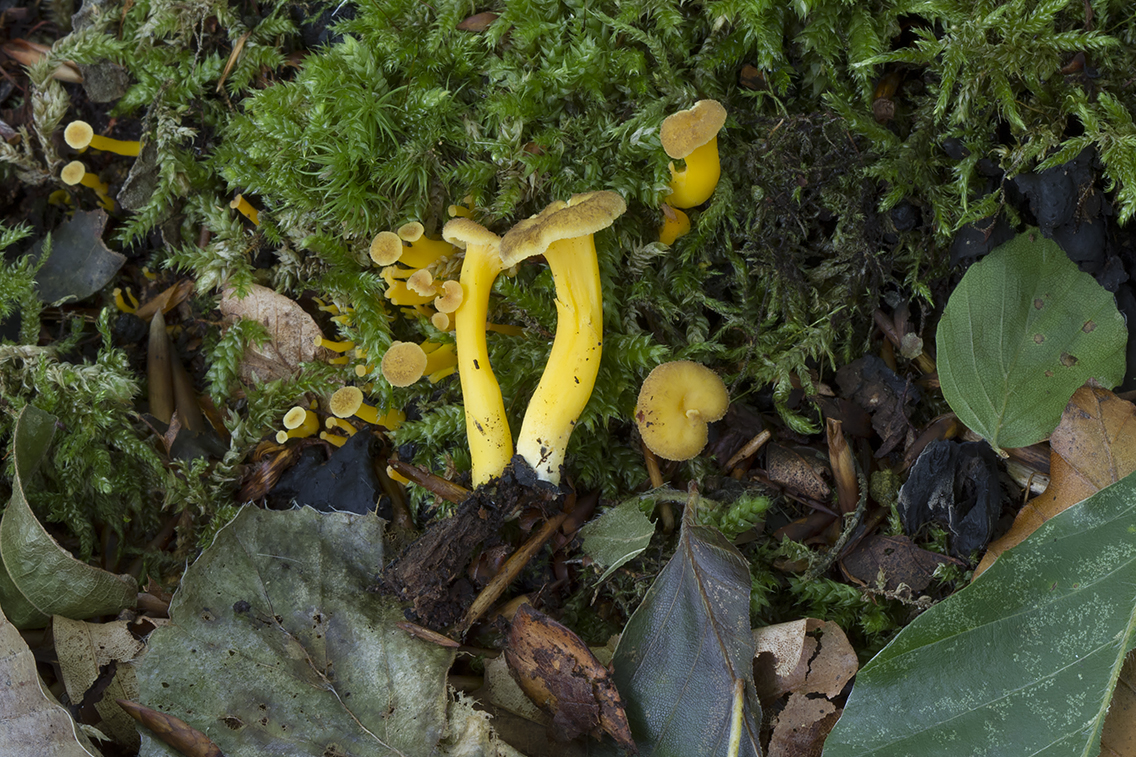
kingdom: Fungi
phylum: Basidiomycota
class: Agaricomycetes
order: Cantharellales
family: Hydnaceae
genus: Craterellus
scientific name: Craterellus tubaeformis
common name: tragt-kantarel
